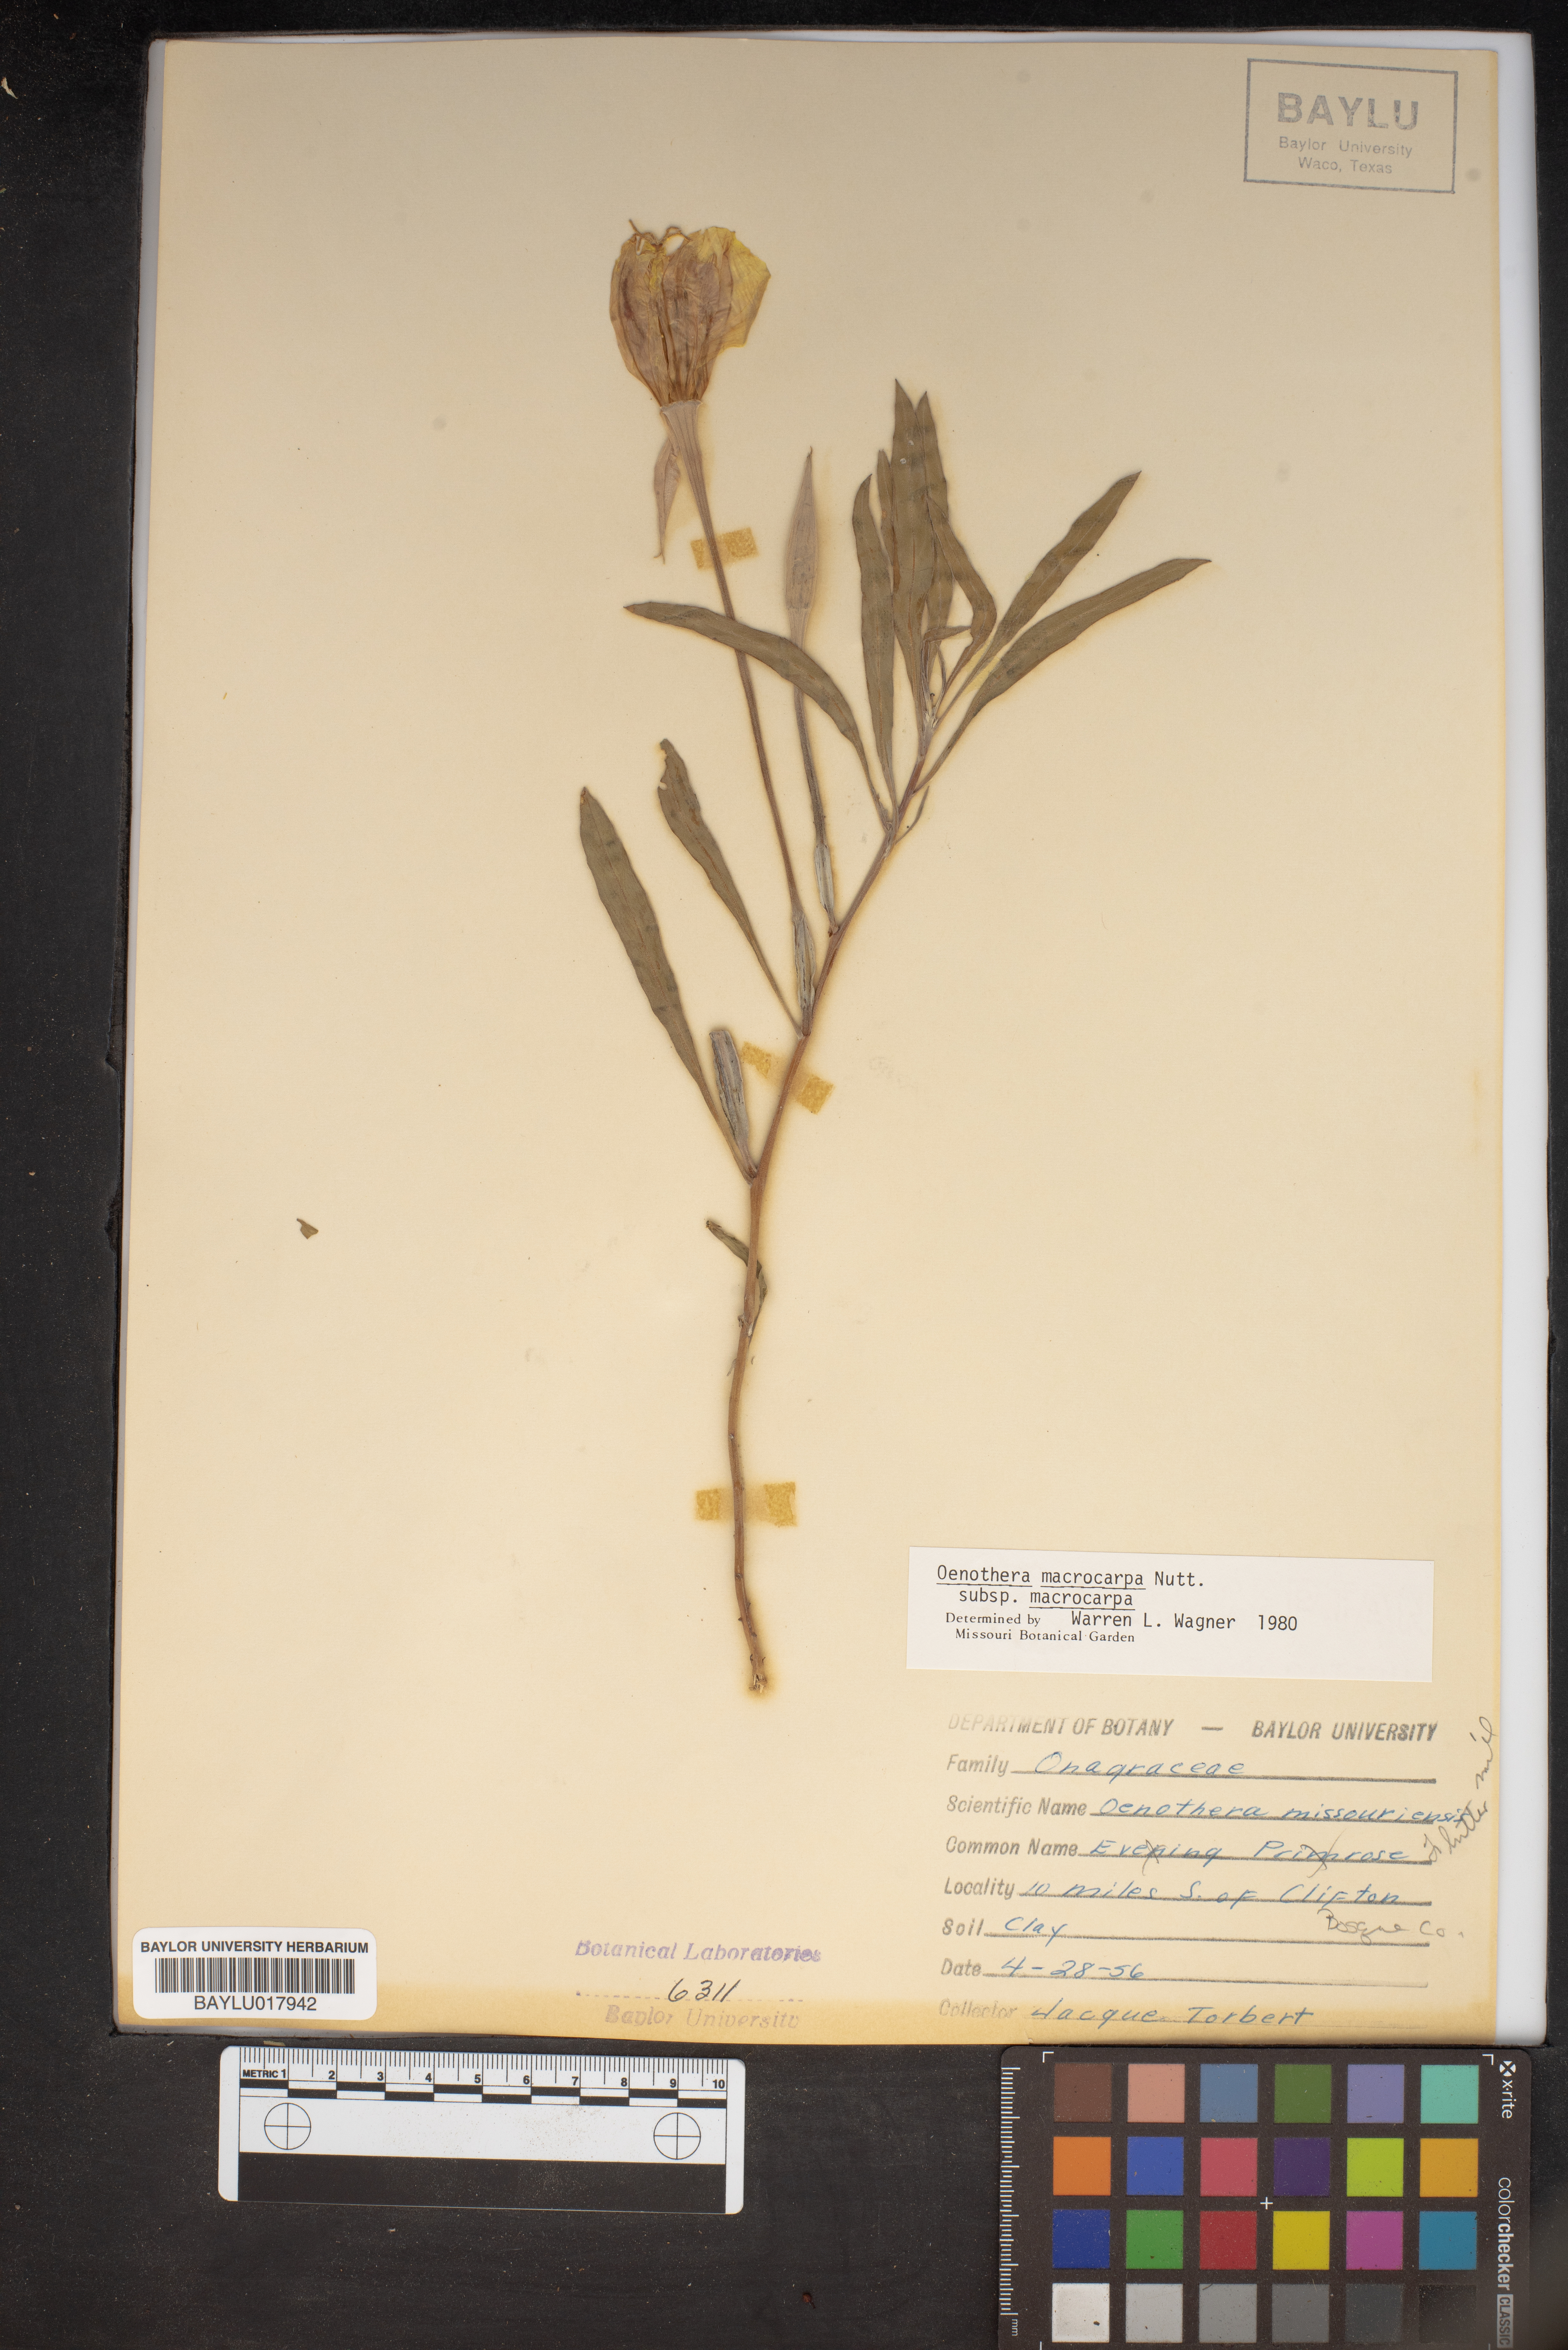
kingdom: Plantae
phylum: Tracheophyta
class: Magnoliopsida
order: Myrtales
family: Onagraceae
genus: Oenothera
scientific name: Oenothera macrocarpa
